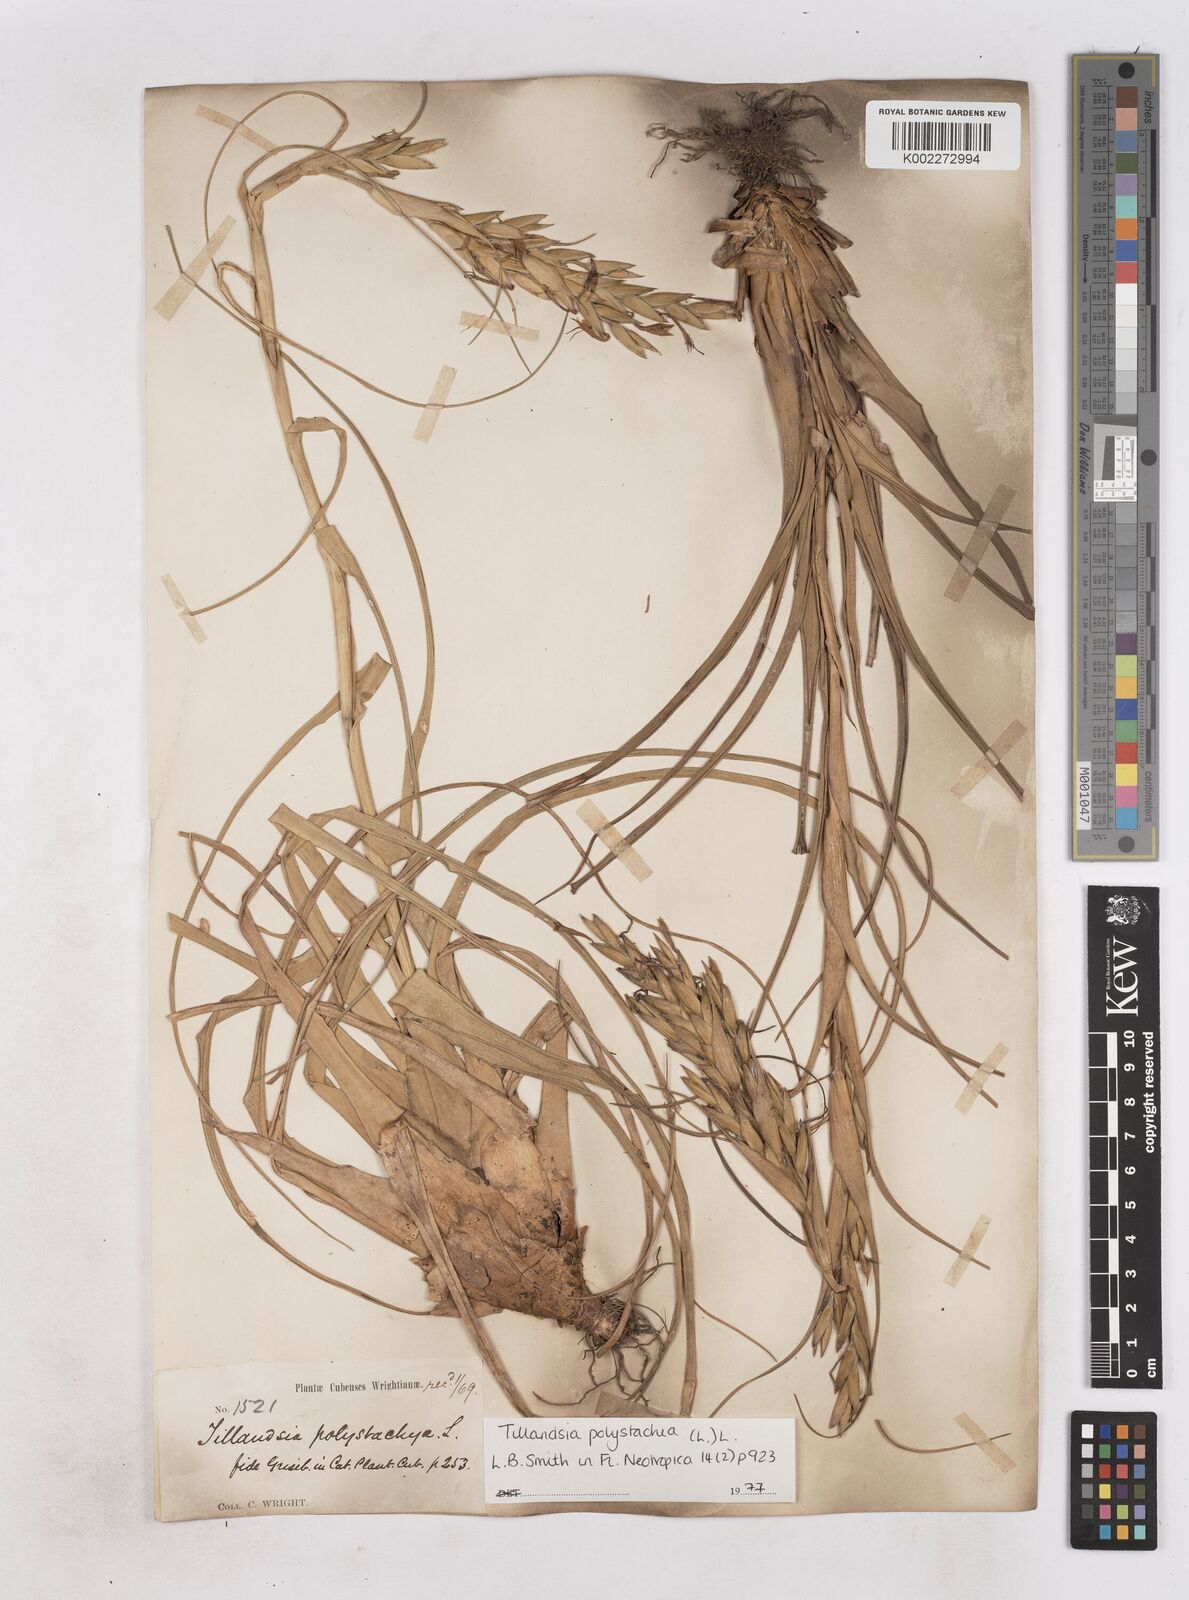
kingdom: Plantae
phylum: Tracheophyta
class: Liliopsida
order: Poales
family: Bromeliaceae
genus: Tillandsia
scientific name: Tillandsia polystachia
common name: Airplant
